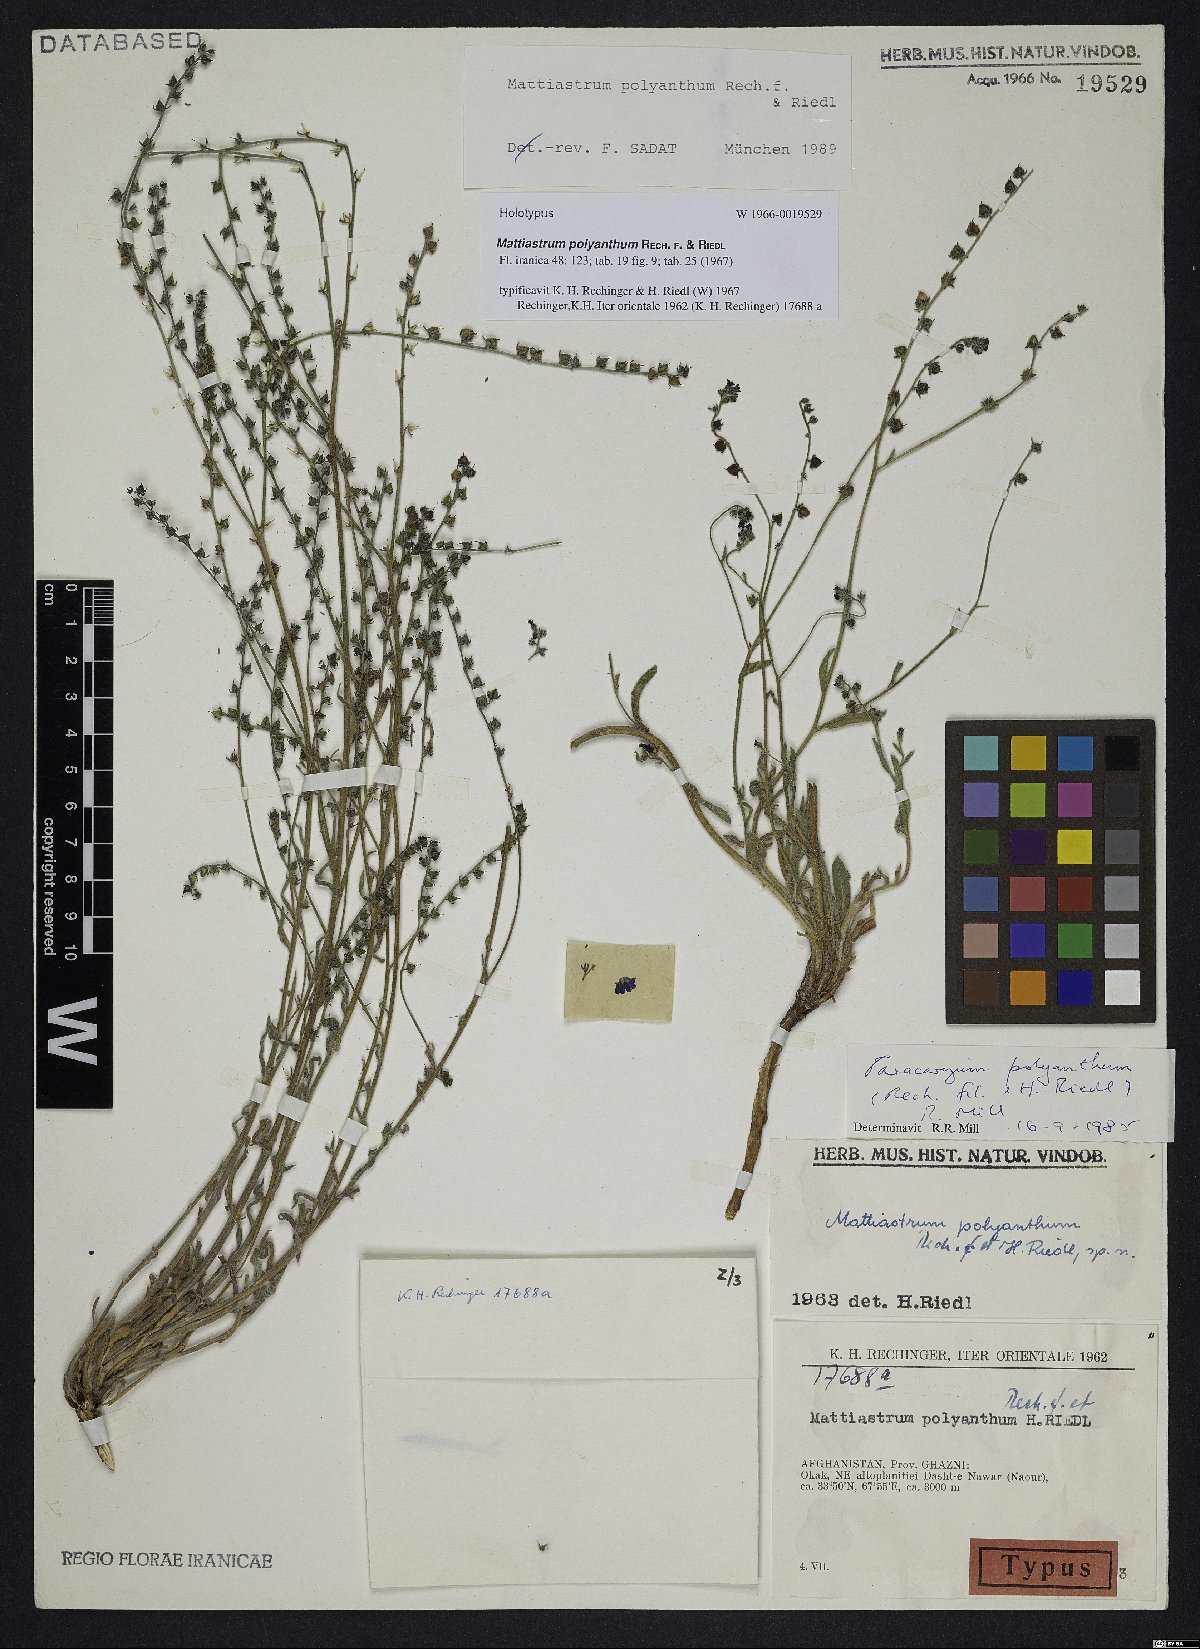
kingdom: Plantae
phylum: Tracheophyta
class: Magnoliopsida
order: Boraginales
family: Boraginaceae
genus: Paracaryum
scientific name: Paracaryum polyanthum
